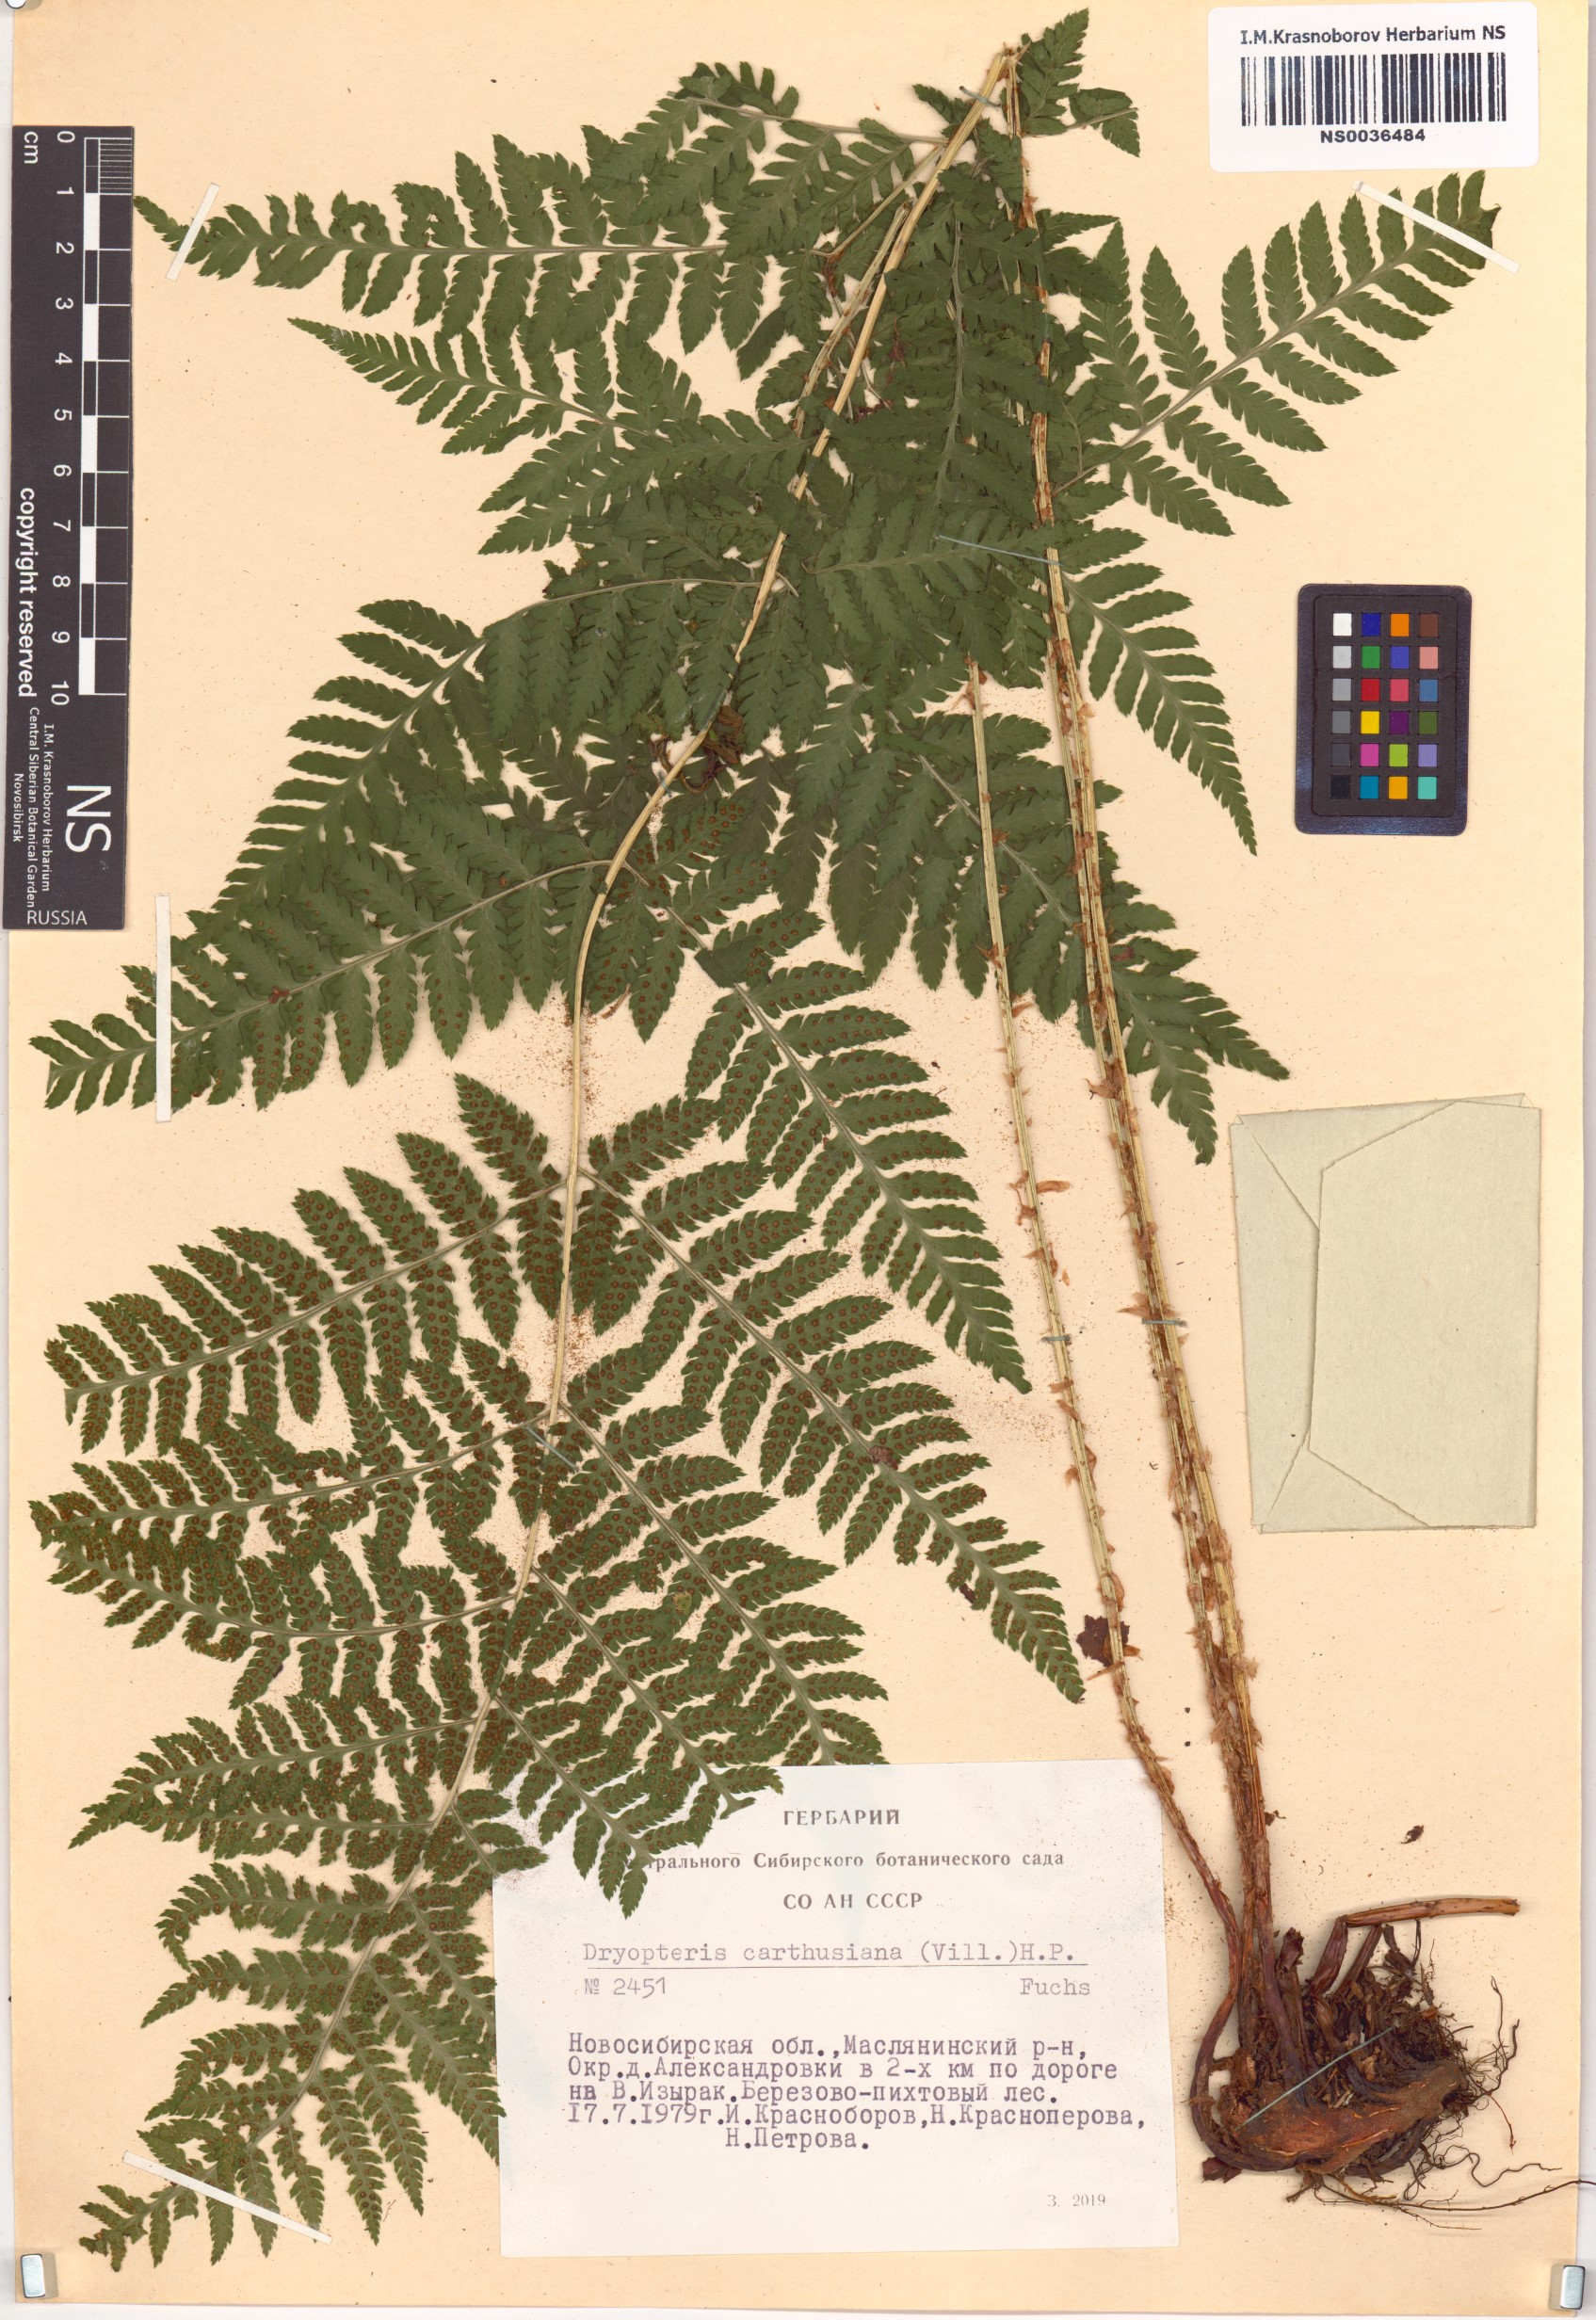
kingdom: Plantae
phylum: Tracheophyta
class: Polypodiopsida
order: Polypodiales
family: Dryopteridaceae
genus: Dryopteris
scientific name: Dryopteris carthusiana
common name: Narrow buckler-fern
